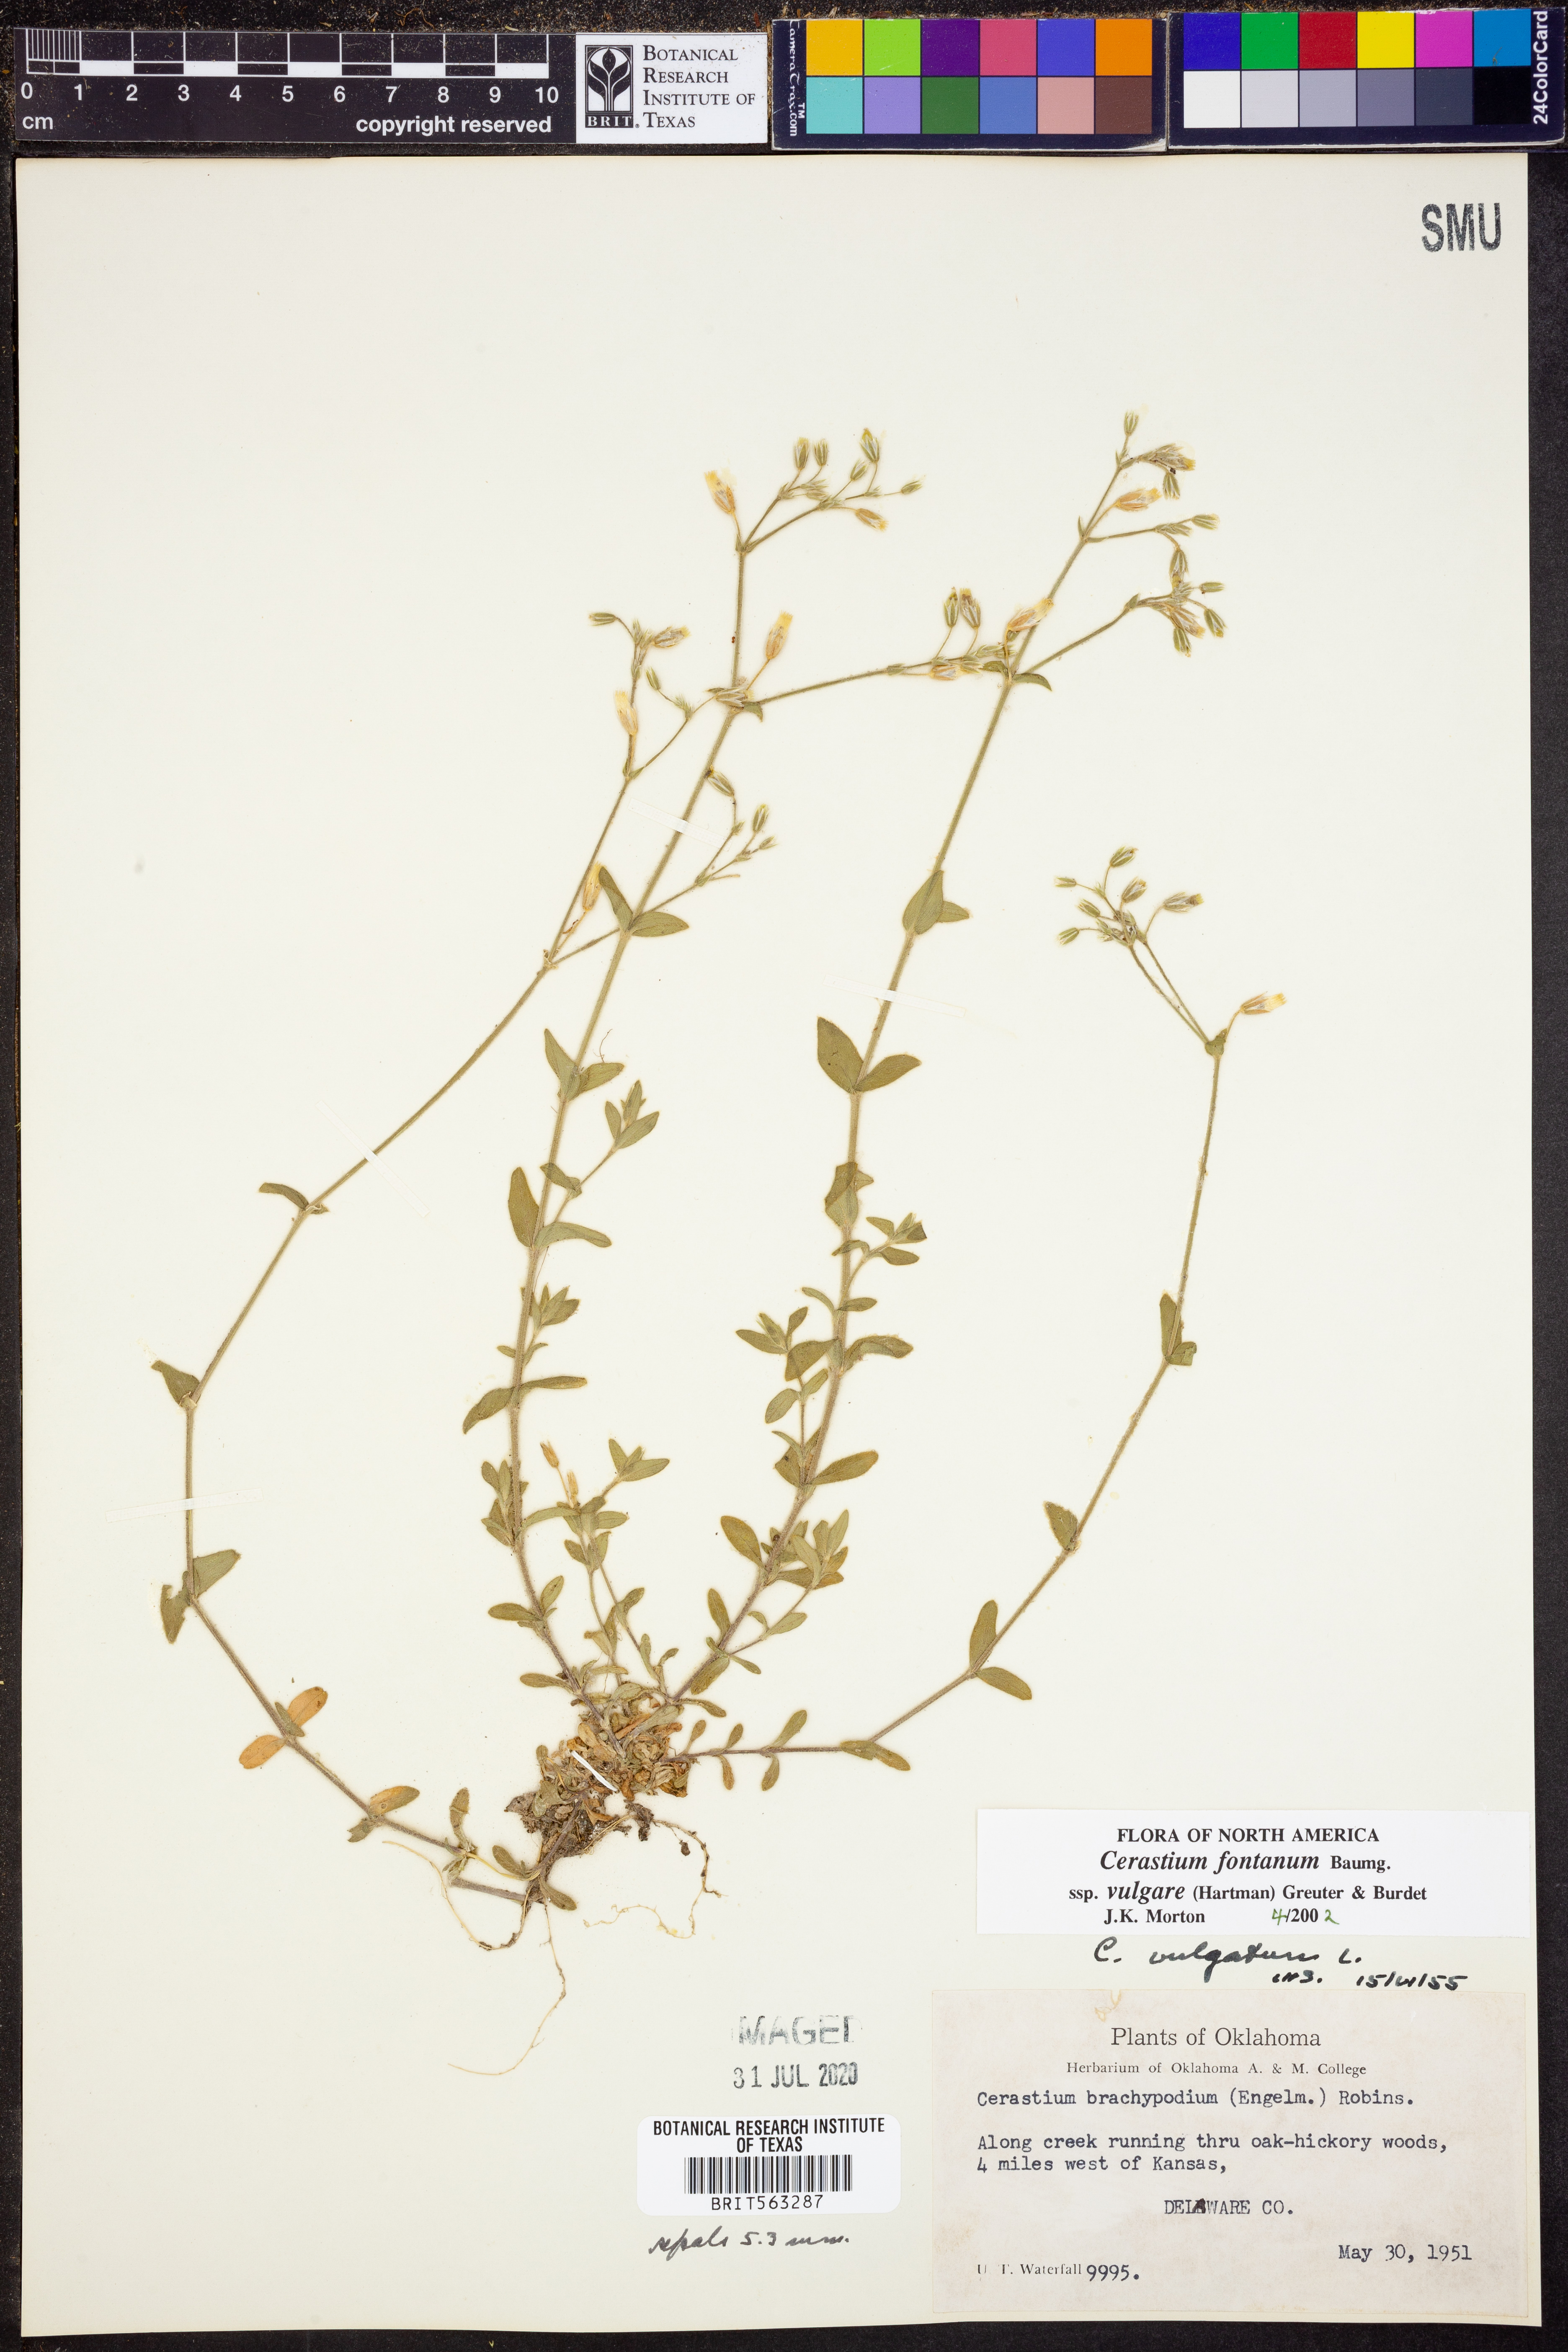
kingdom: Plantae
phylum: Tracheophyta
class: Magnoliopsida
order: Caryophyllales
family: Caryophyllaceae
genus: Cerastium
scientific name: Cerastium holosteoides
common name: Big chickweed
